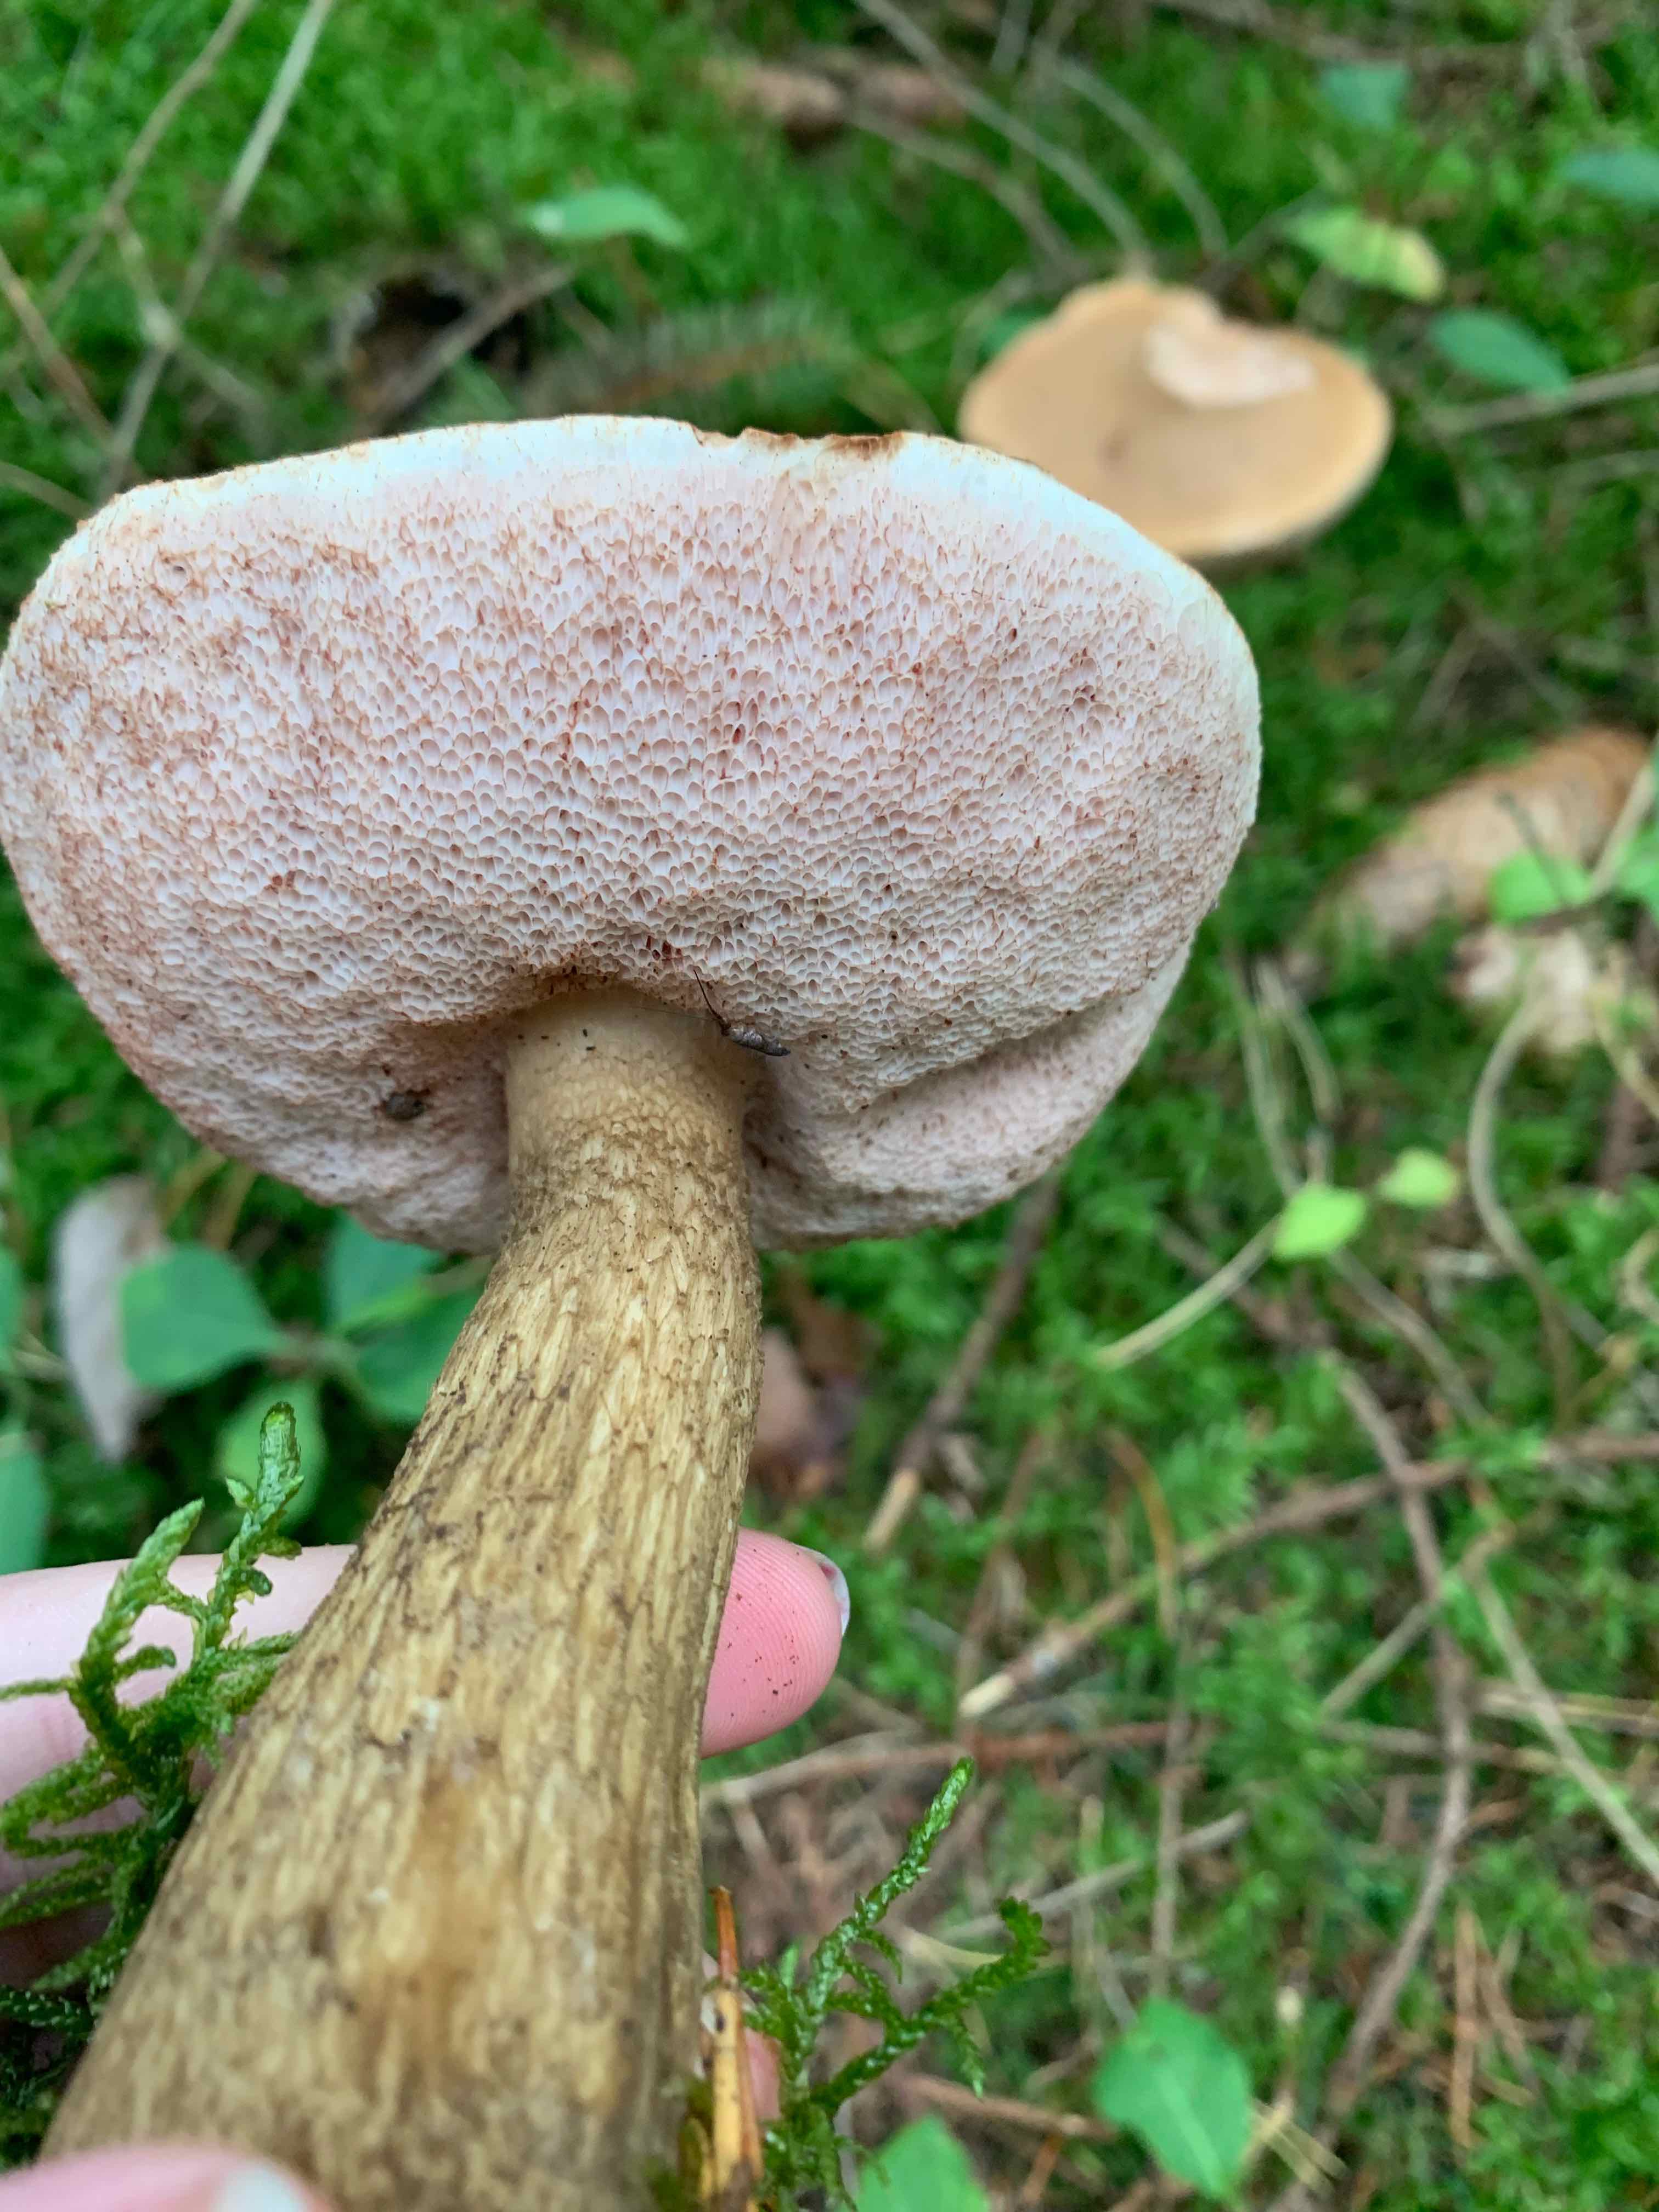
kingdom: Fungi
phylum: Basidiomycota
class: Agaricomycetes
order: Boletales
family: Boletaceae
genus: Tylopilus
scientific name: Tylopilus felleus
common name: galderørhat
